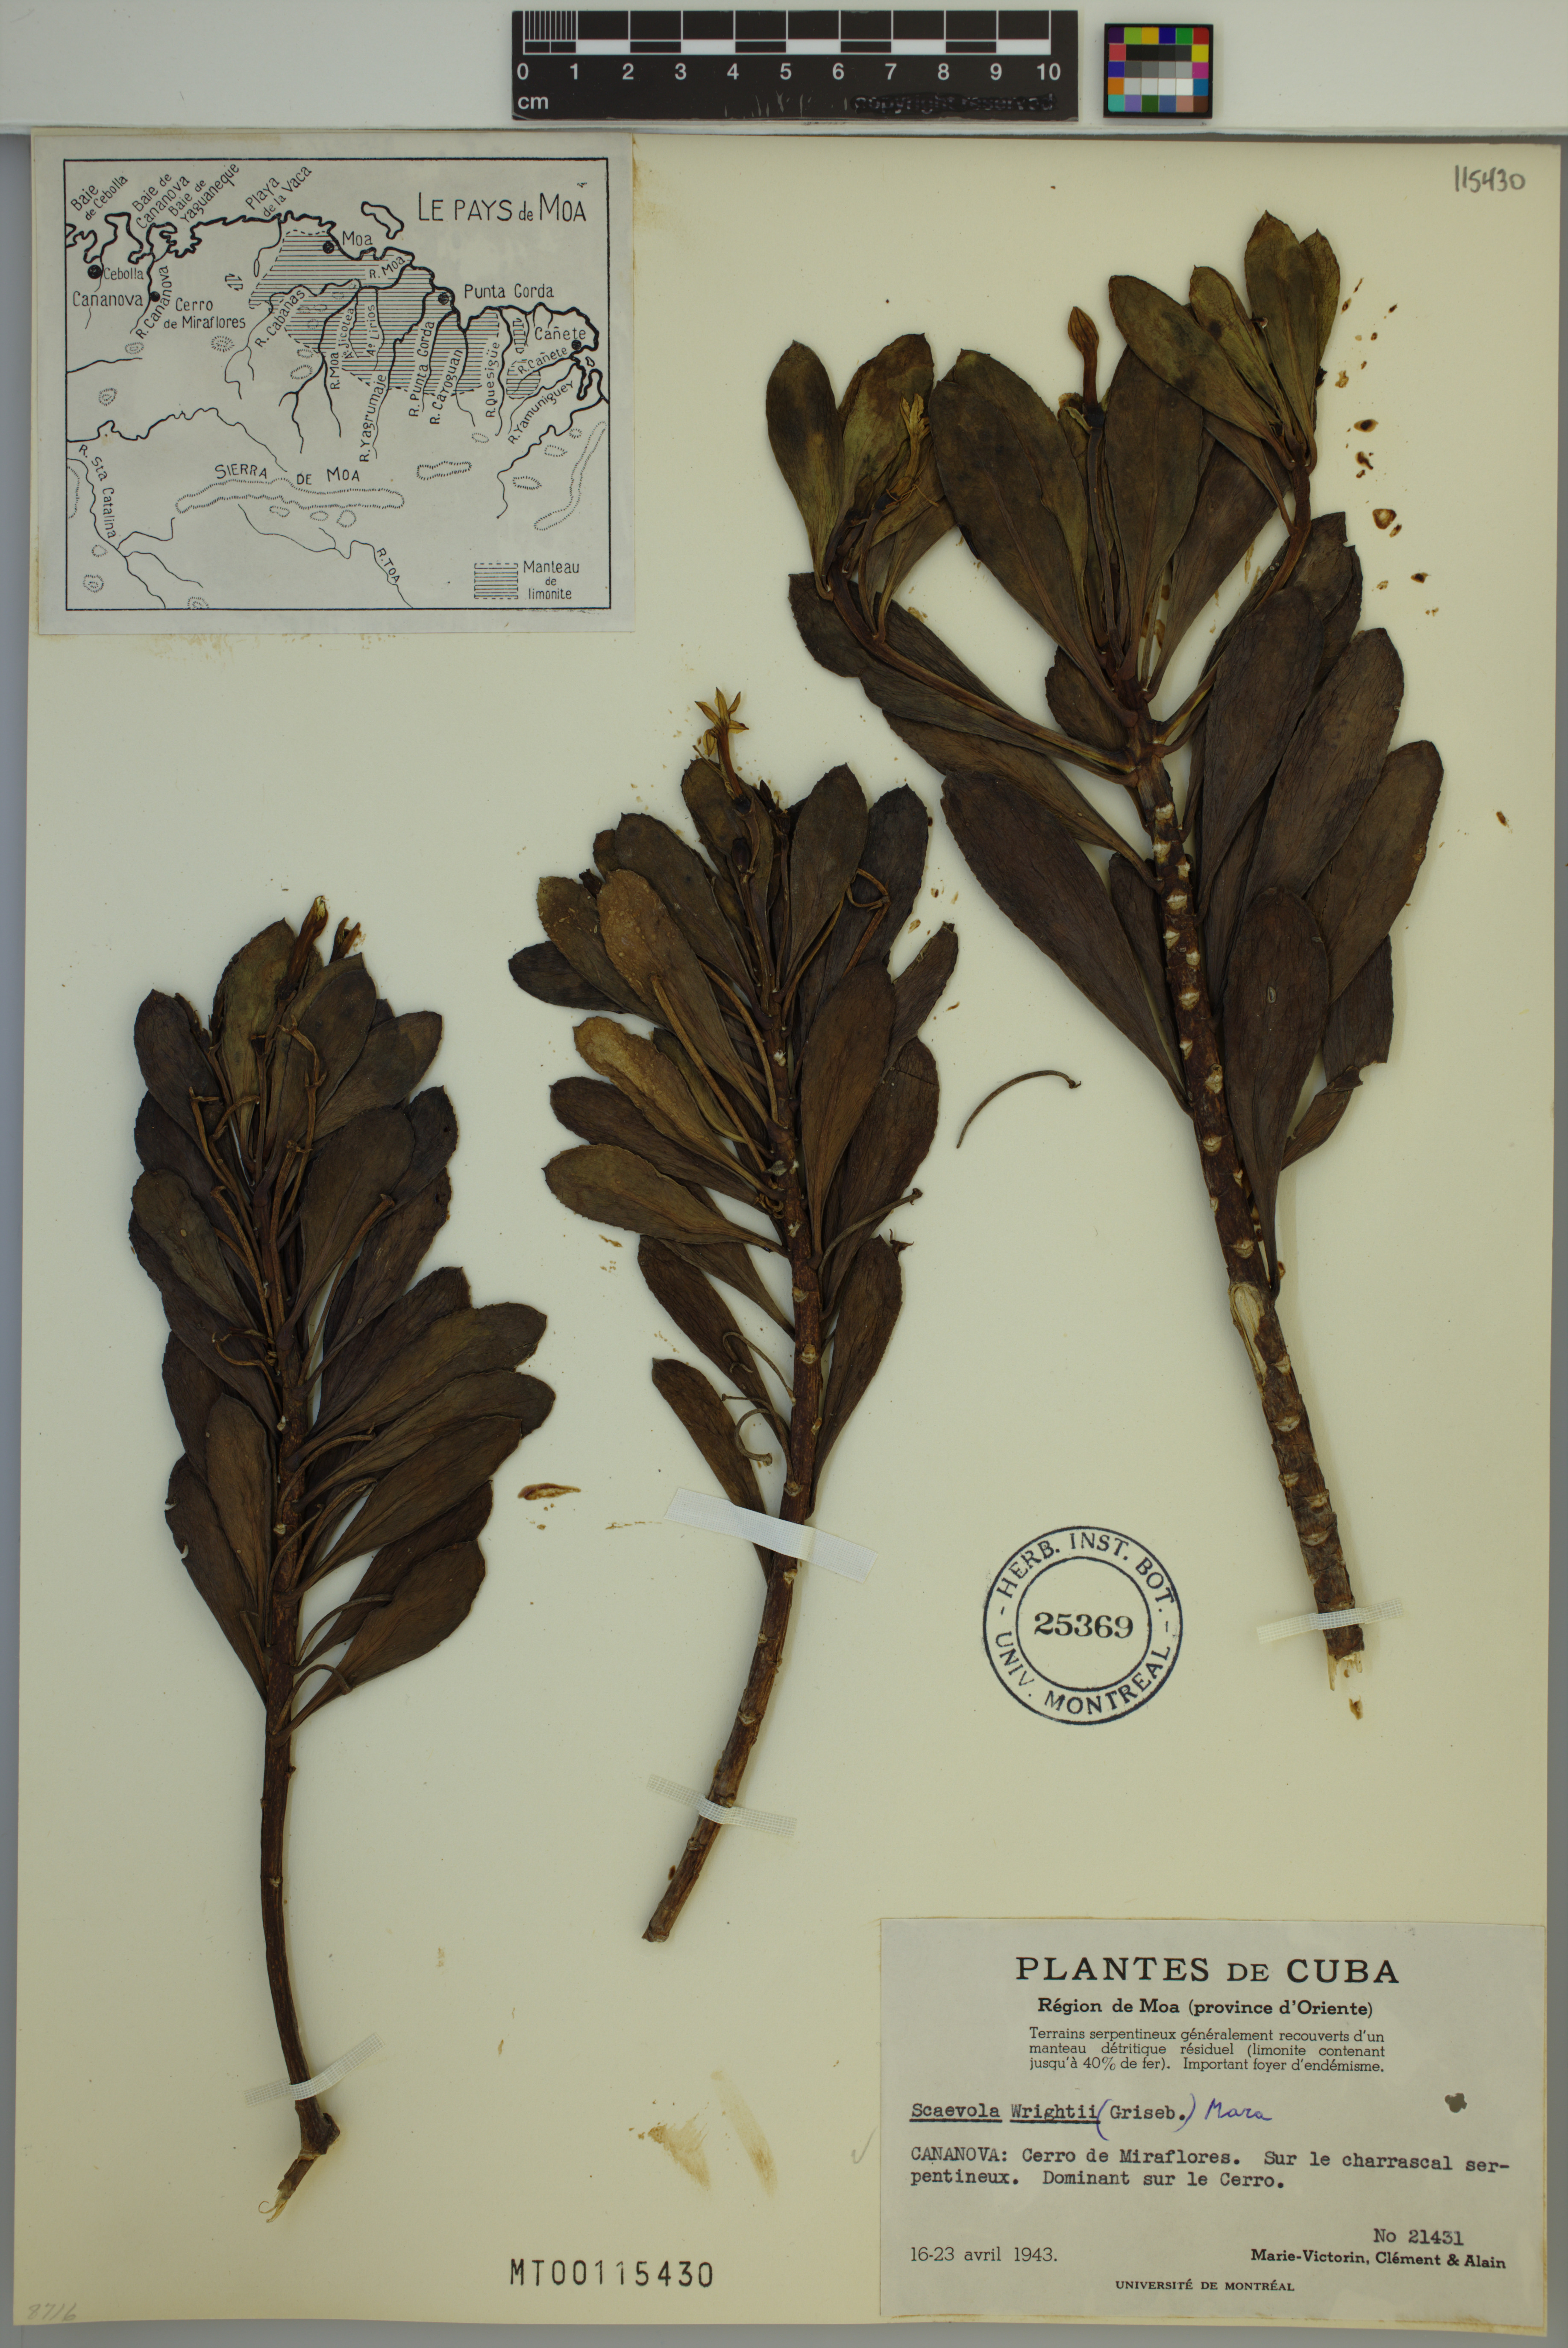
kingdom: Plantae
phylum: Tracheophyta
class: Magnoliopsida
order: Asterales
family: Goodeniaceae
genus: Scaevola
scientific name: Scaevola wrightii
